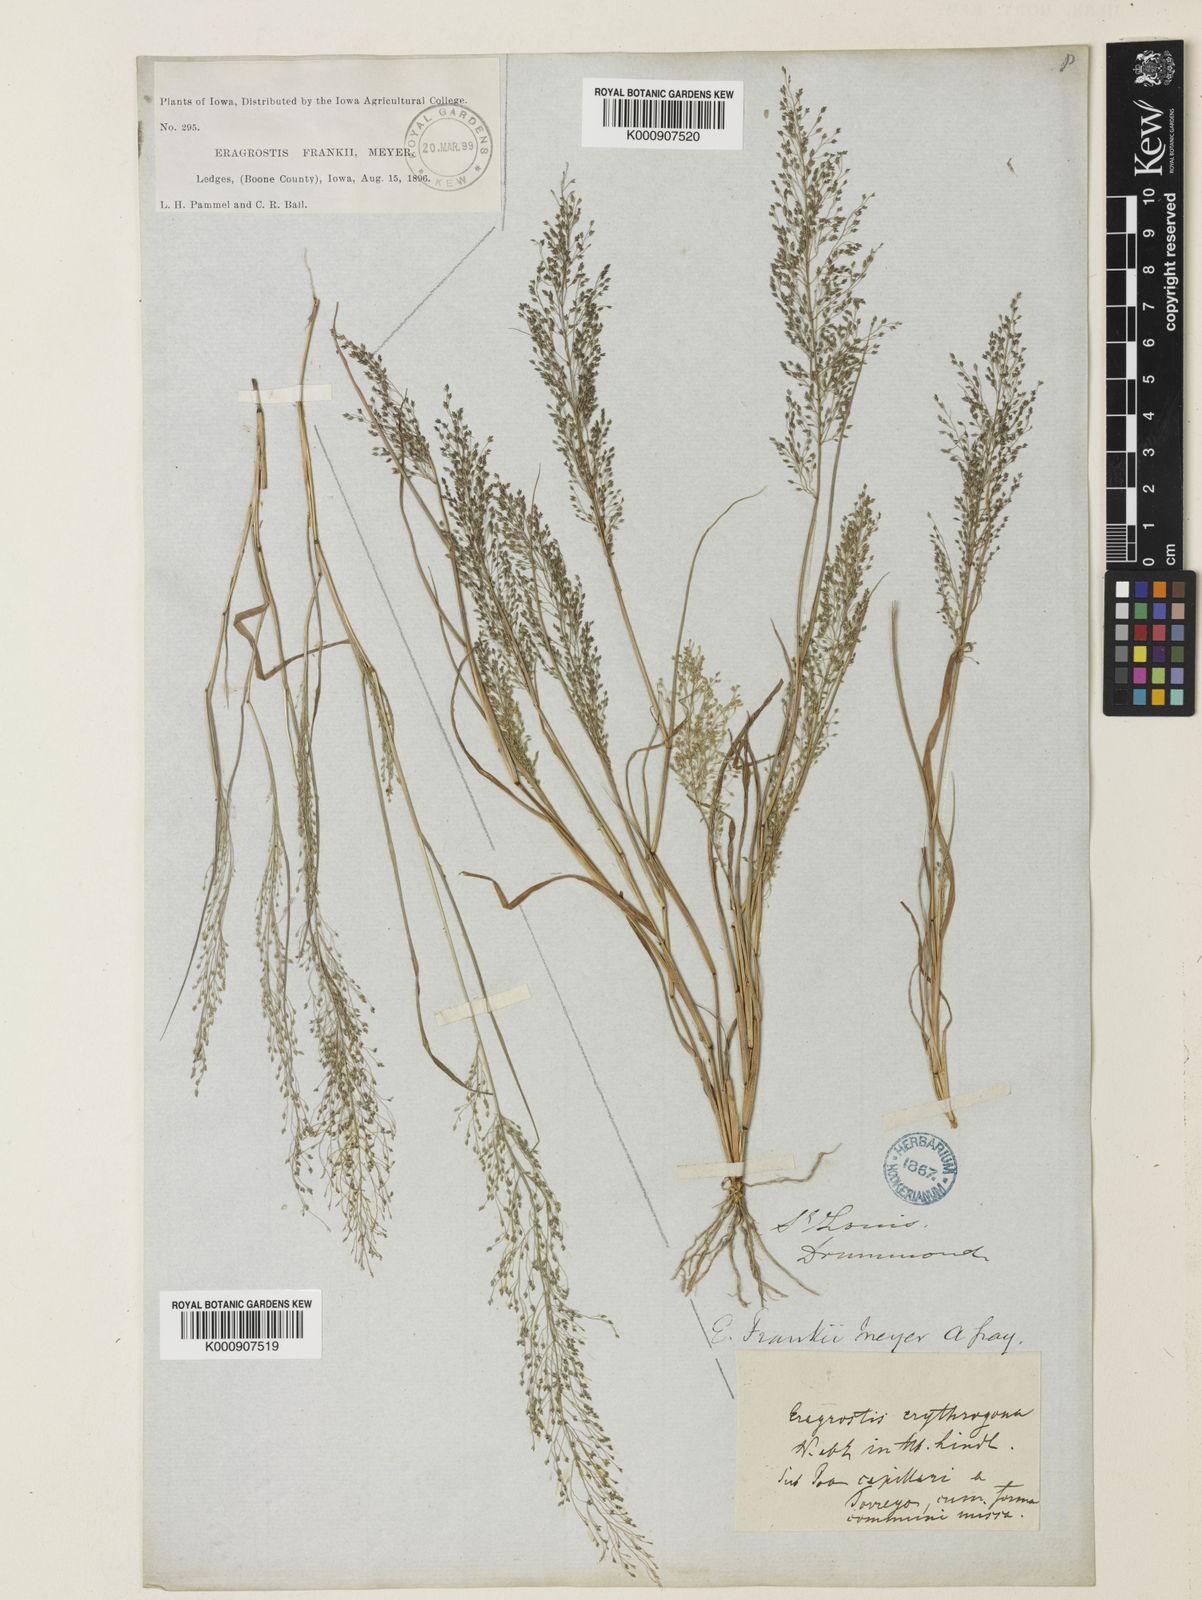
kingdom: Plantae
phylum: Tracheophyta
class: Liliopsida
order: Poales
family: Poaceae
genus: Eragrostis
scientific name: Eragrostis
